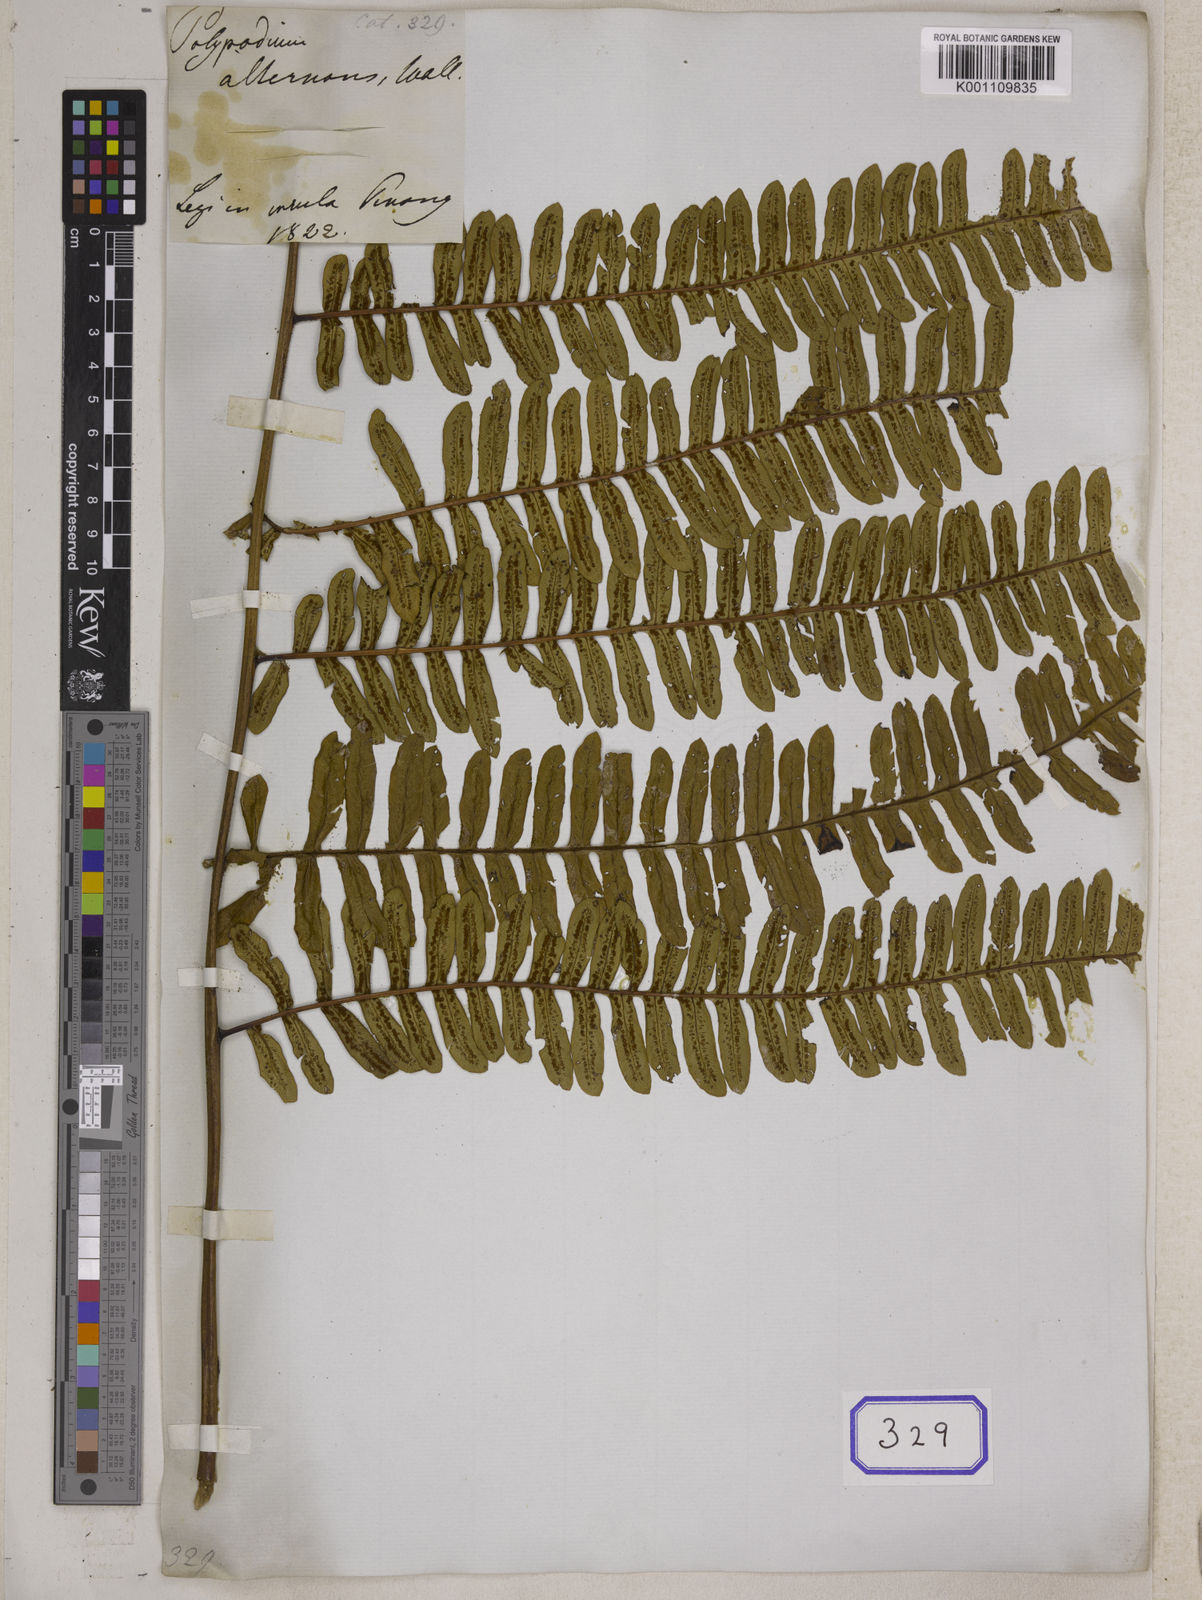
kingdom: Plantae
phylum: Tracheophyta
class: Polypodiopsida
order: Cyatheales
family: Cyatheaceae
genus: Alsophila
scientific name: Alsophila alternans
